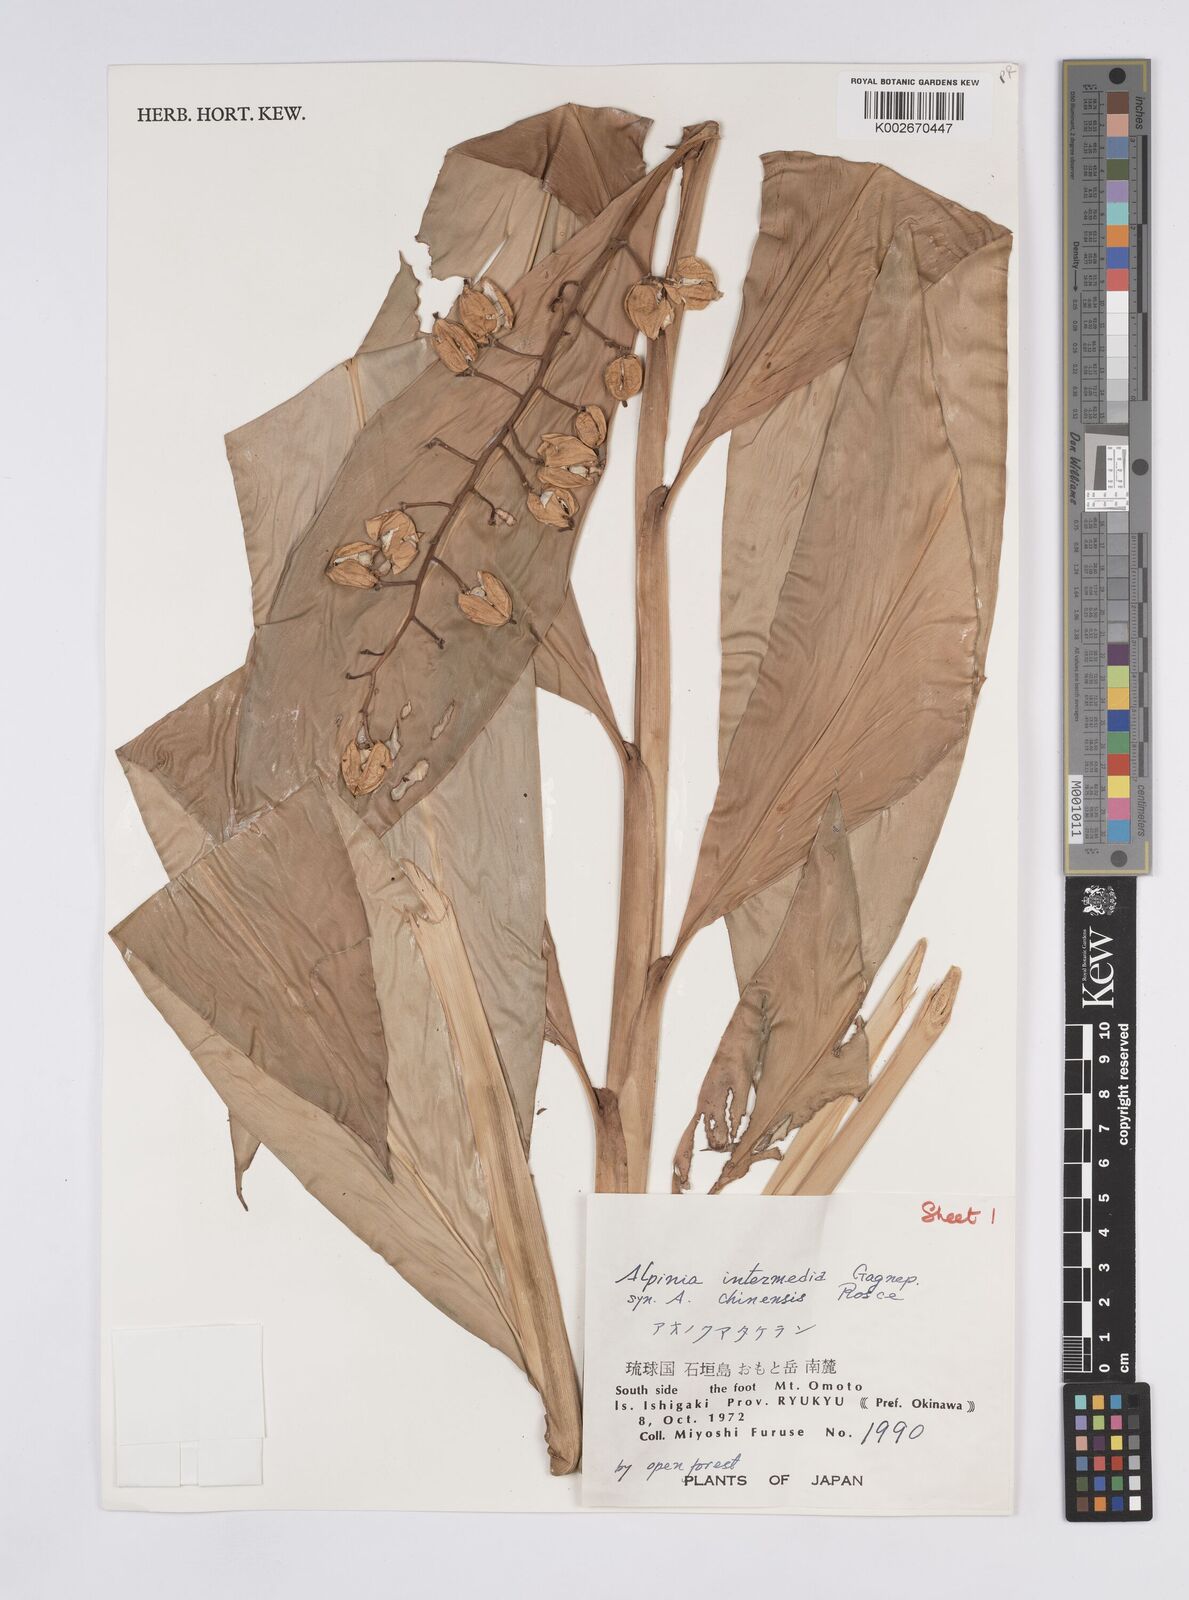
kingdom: Plantae
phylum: Tracheophyta
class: Liliopsida
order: Zingiberales
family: Zingiberaceae
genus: Alpinia
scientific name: Alpinia intermedia
